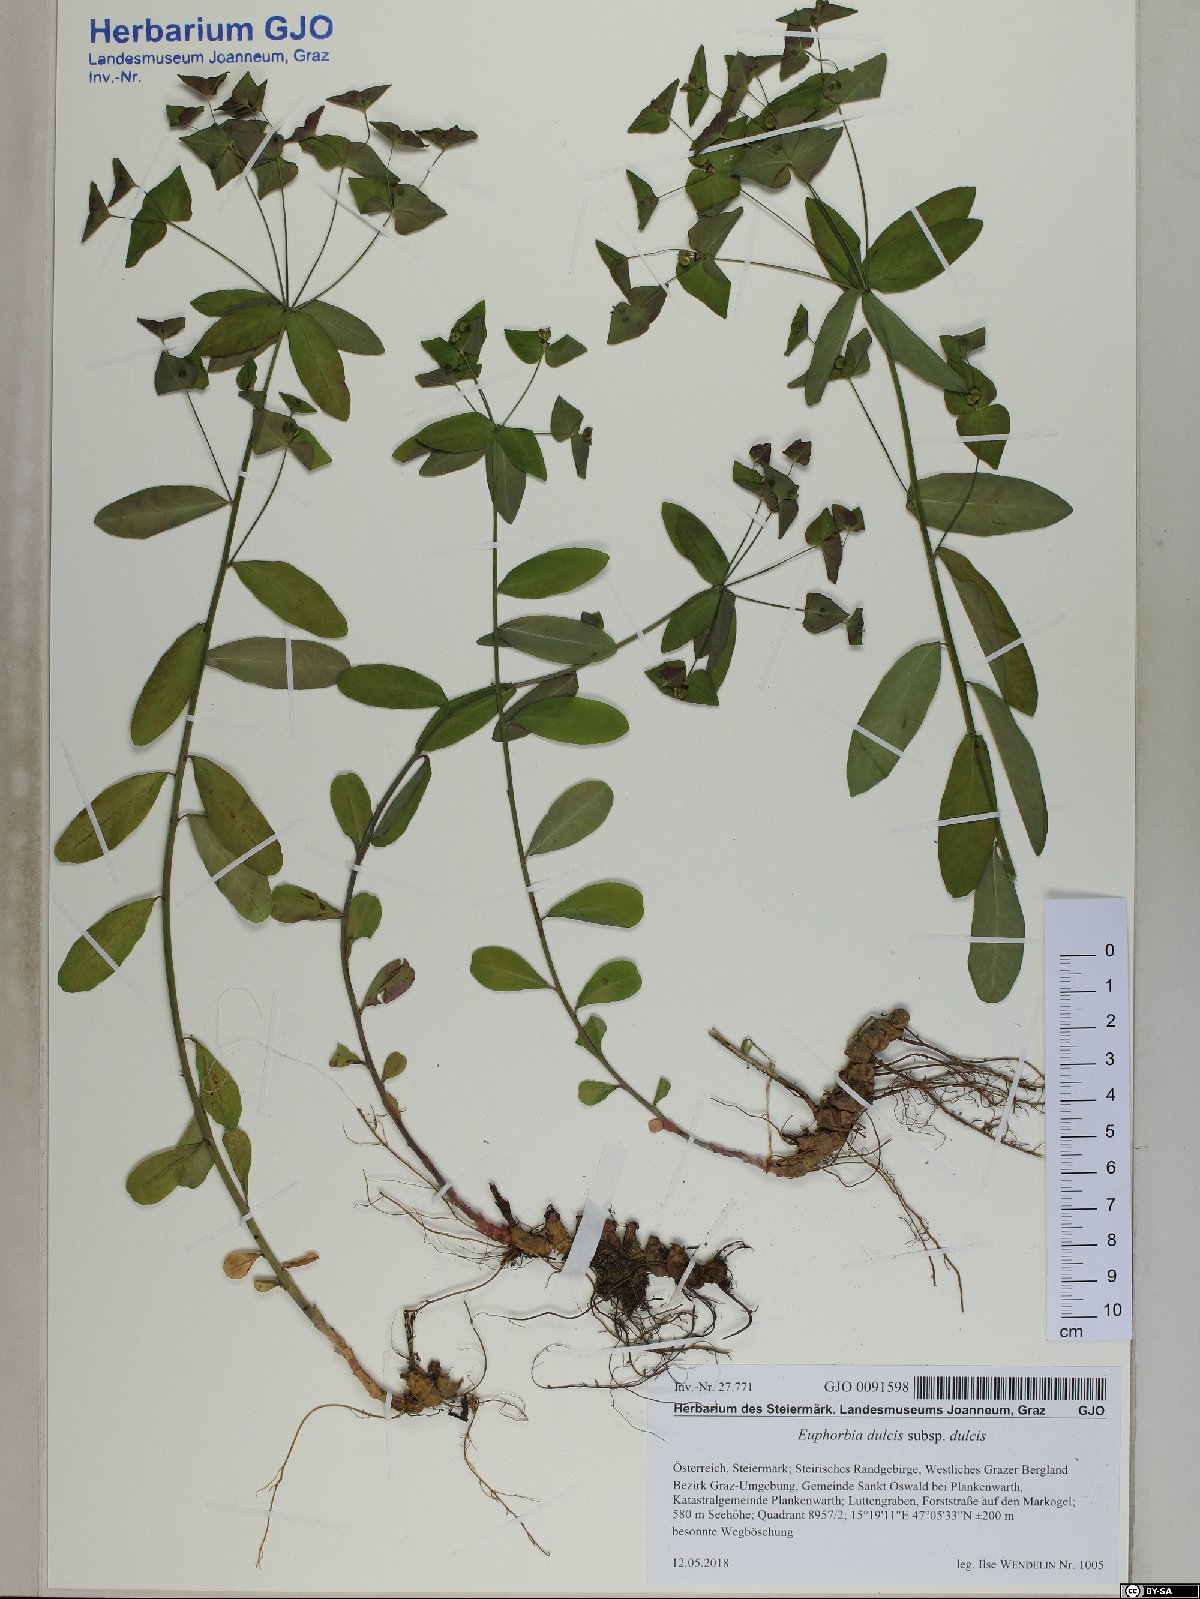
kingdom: Plantae
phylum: Tracheophyta
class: Magnoliopsida
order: Malpighiales
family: Euphorbiaceae
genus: Euphorbia
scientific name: Euphorbia dulcis
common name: Sweet spurge
